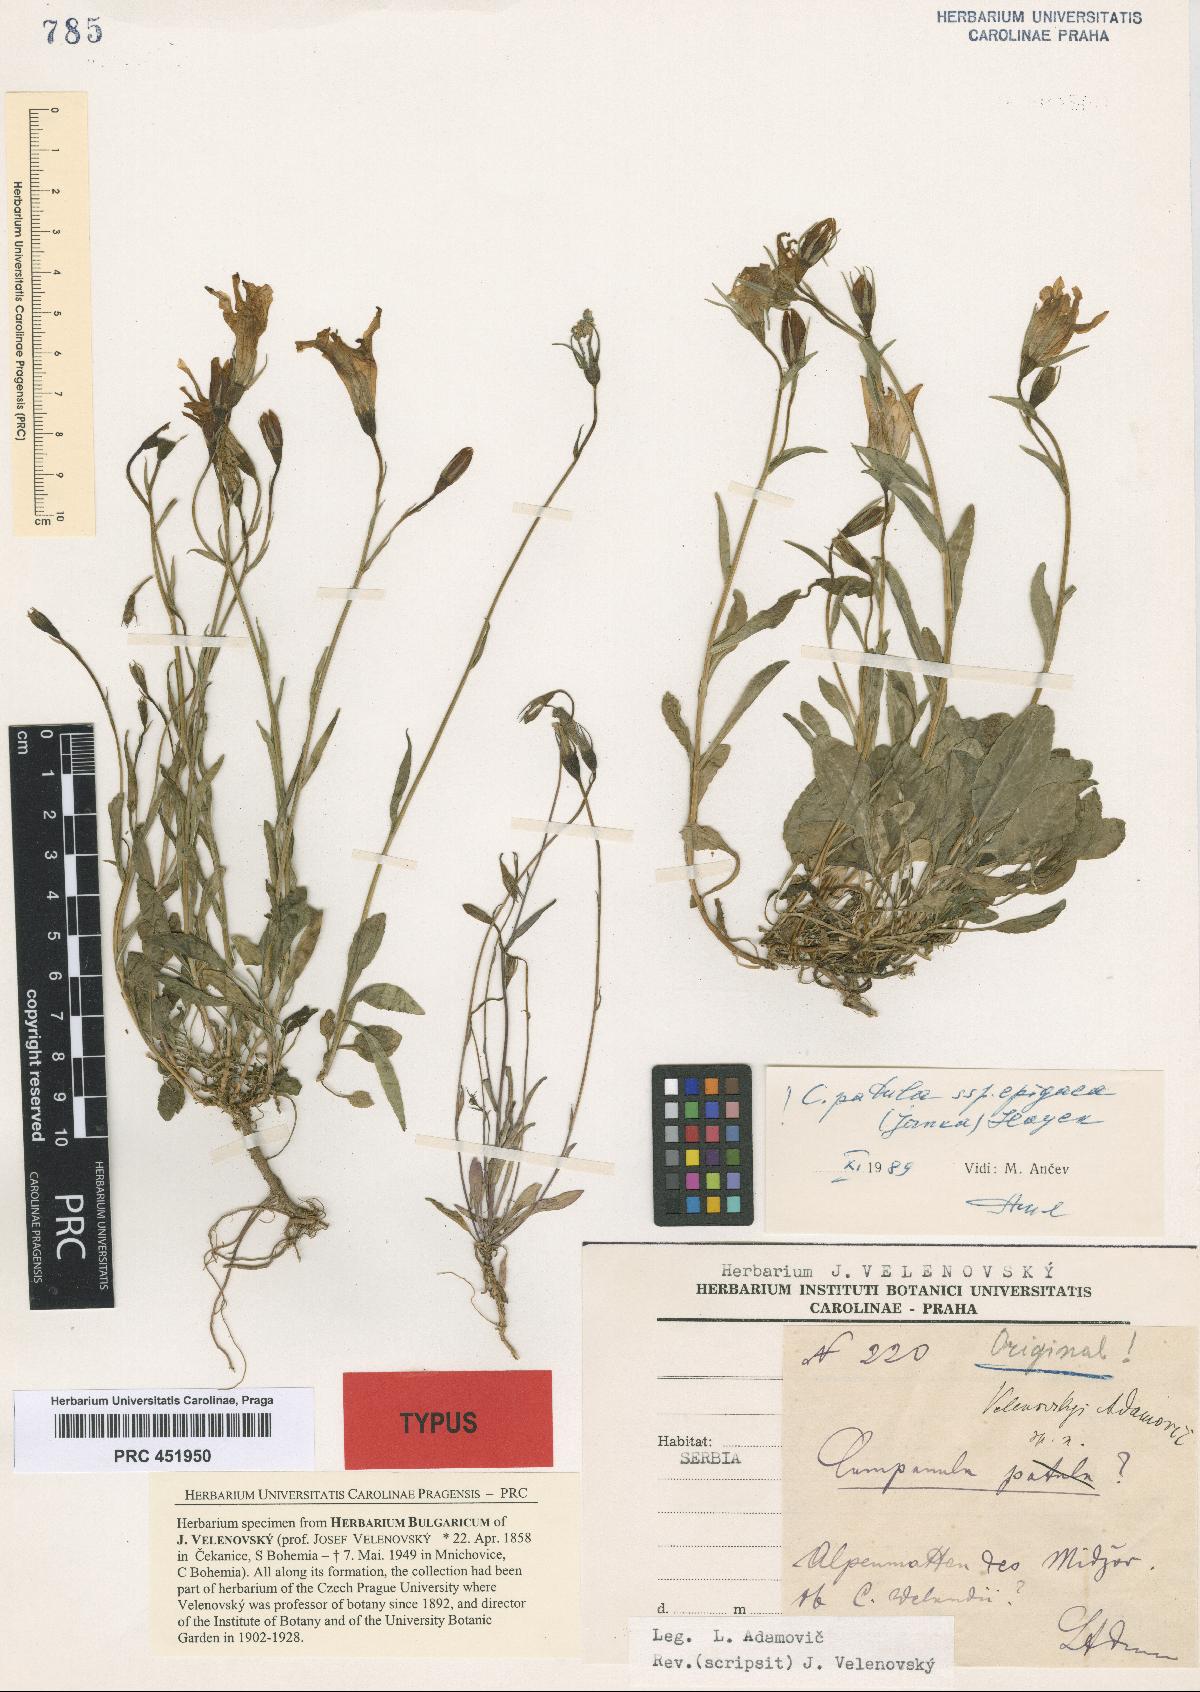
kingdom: Plantae
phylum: Tracheophyta
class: Magnoliopsida
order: Asterales
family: Campanulaceae
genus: Campanula
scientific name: Campanula patula
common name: Spreading bellflower
